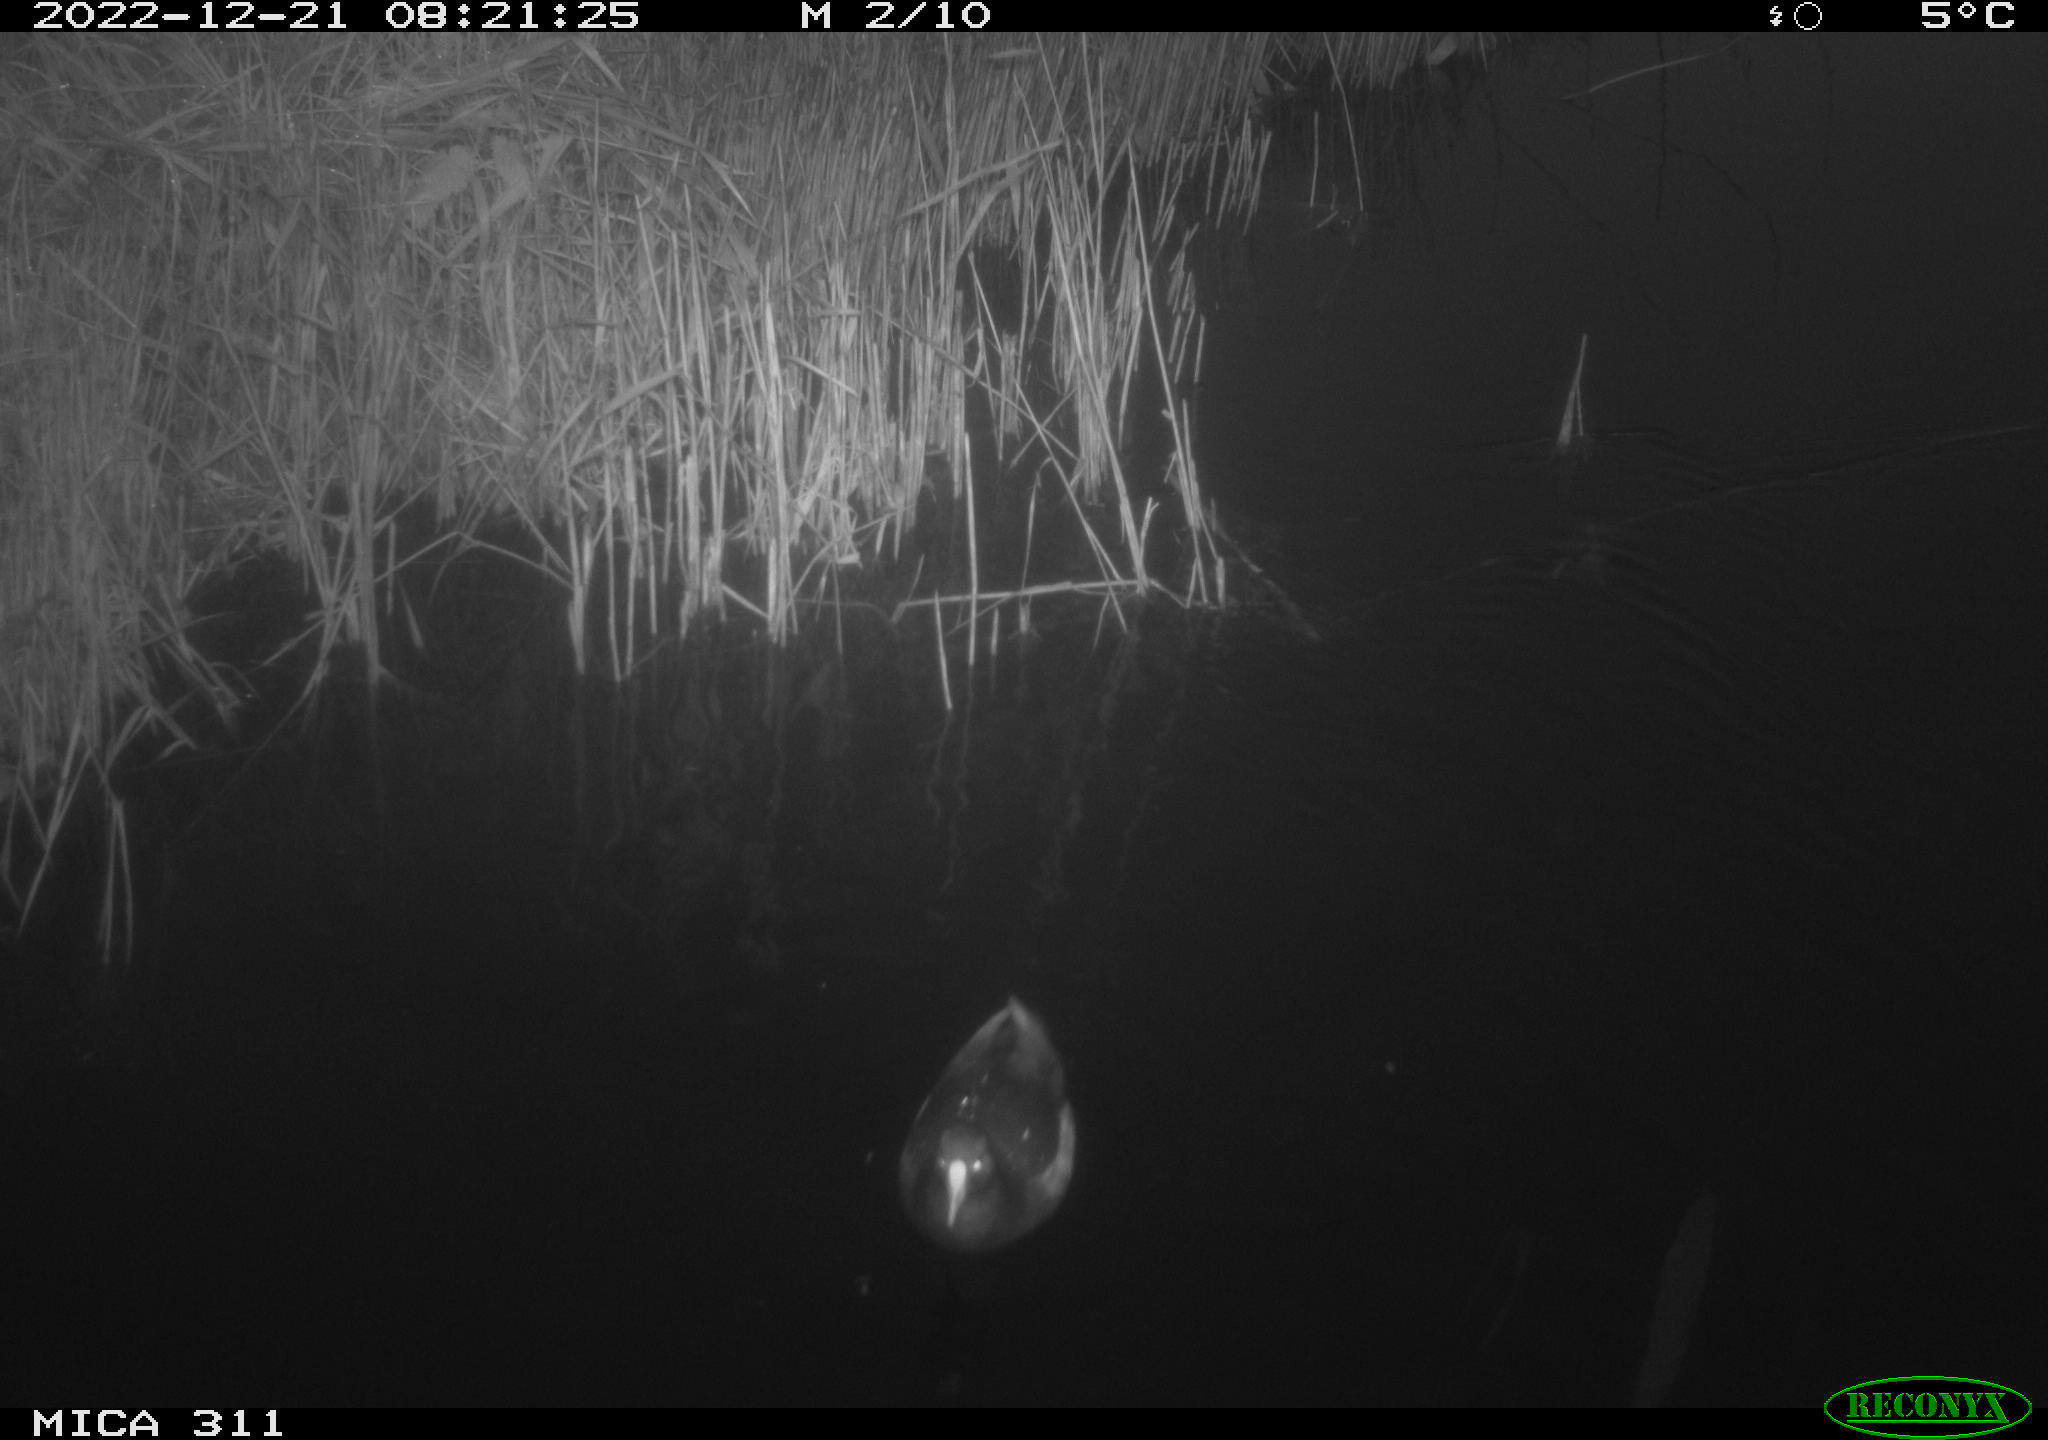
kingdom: Animalia
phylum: Chordata
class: Aves
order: Gruiformes
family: Rallidae
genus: Gallinula
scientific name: Gallinula chloropus
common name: Common moorhen
